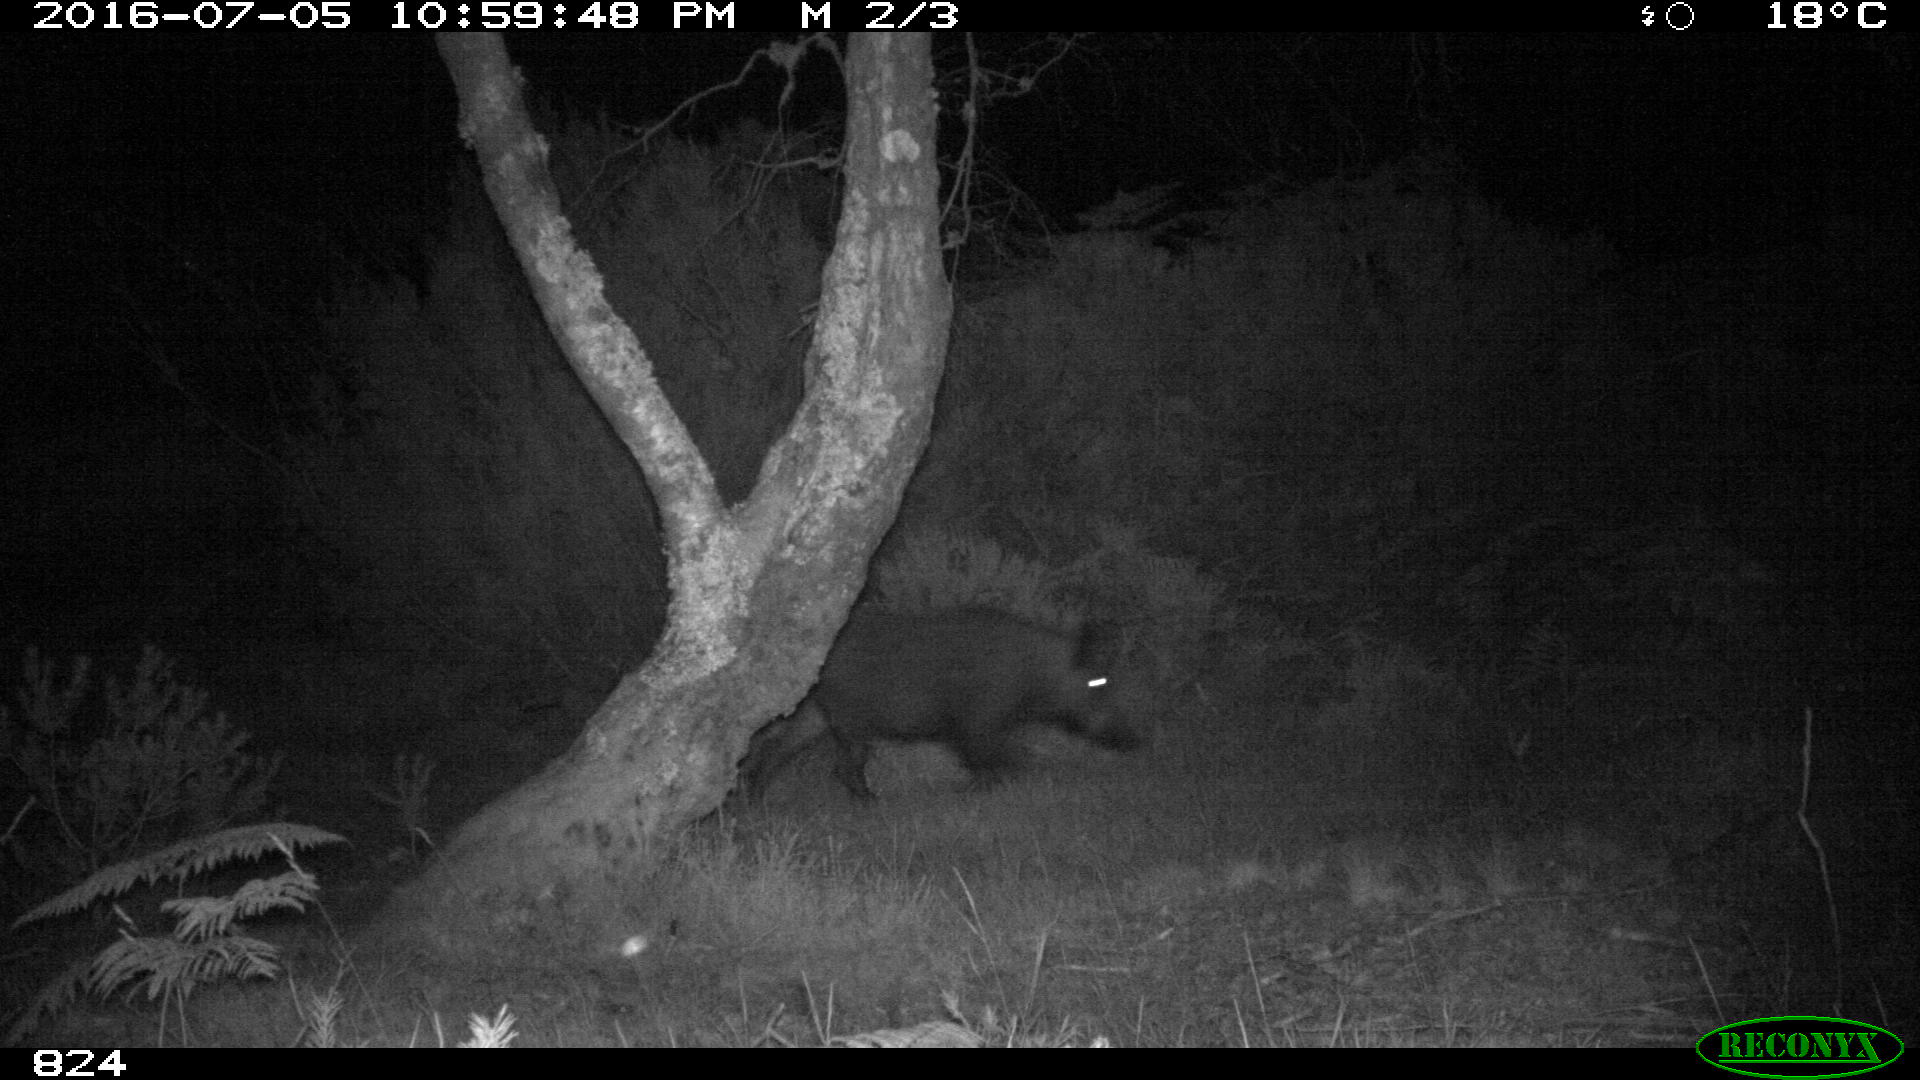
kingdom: Animalia
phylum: Chordata
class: Mammalia
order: Artiodactyla
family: Suidae
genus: Sus
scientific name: Sus scrofa
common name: Wild boar
